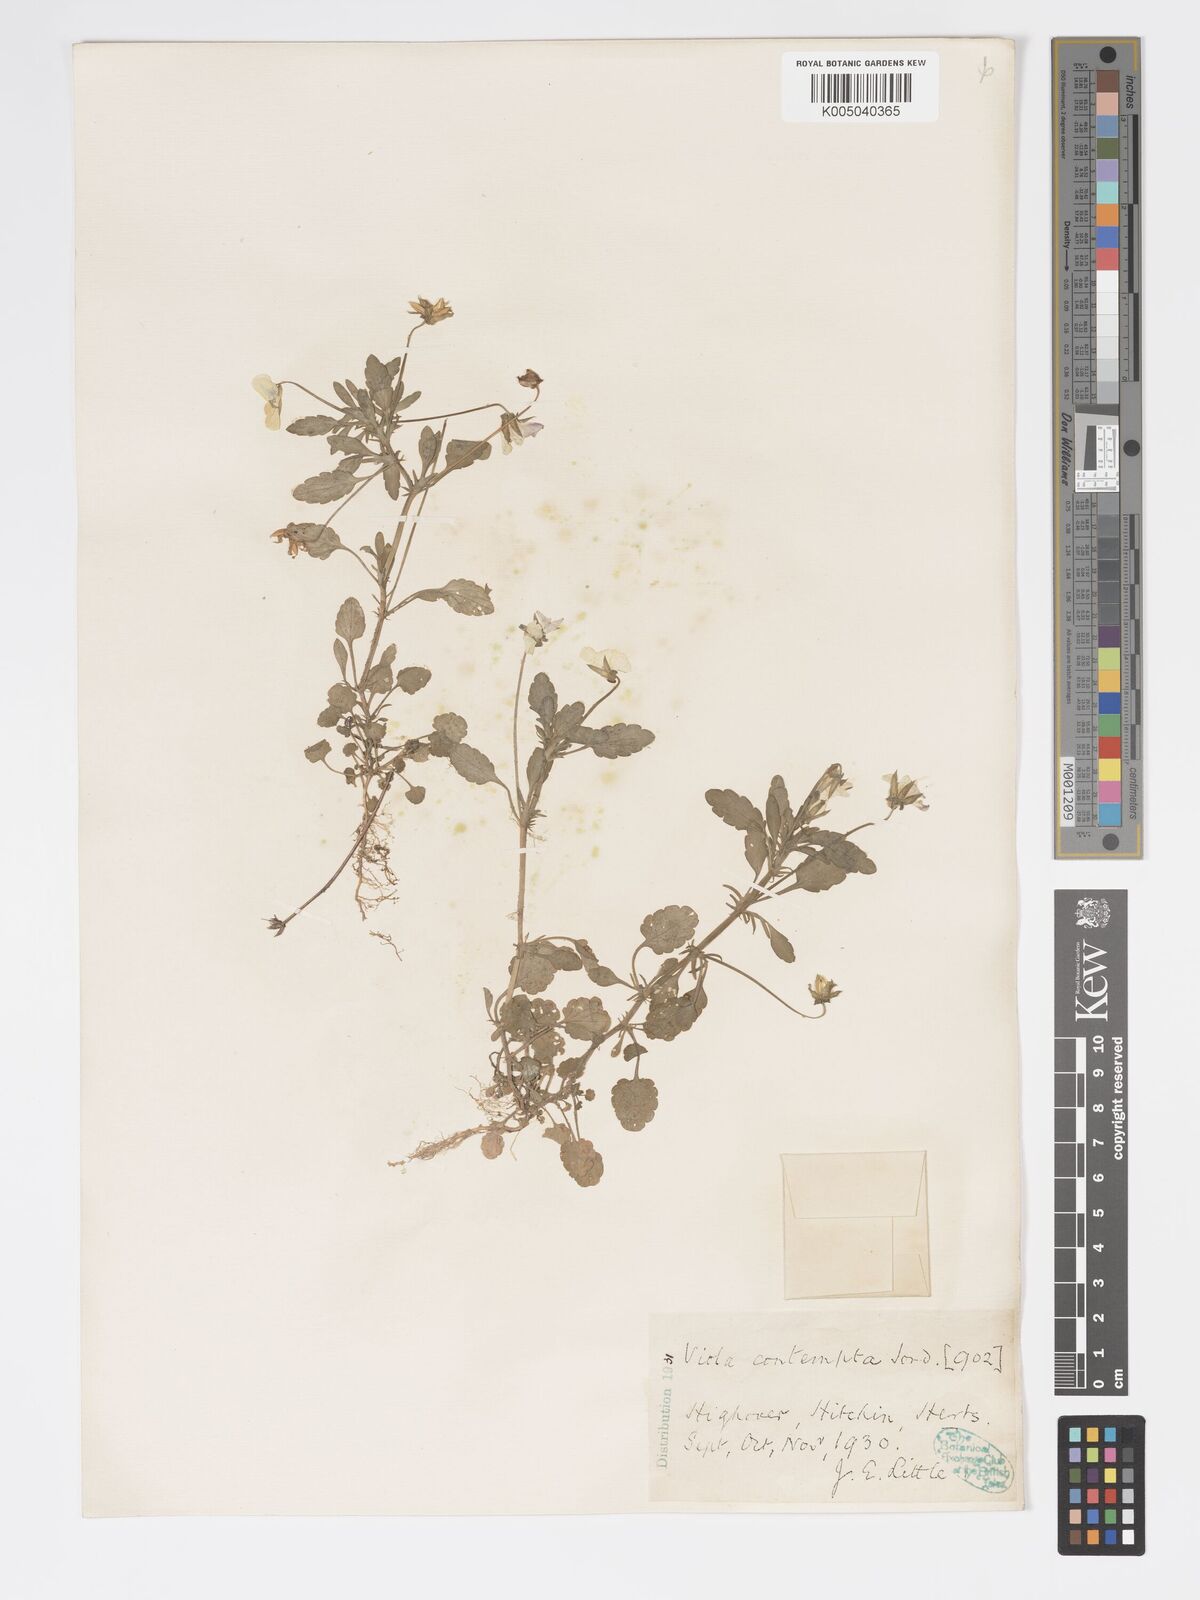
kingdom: Plantae
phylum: Tracheophyta
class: Magnoliopsida
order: Malpighiales
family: Violaceae
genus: Viola
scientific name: Viola arvensis
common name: Field pansy
